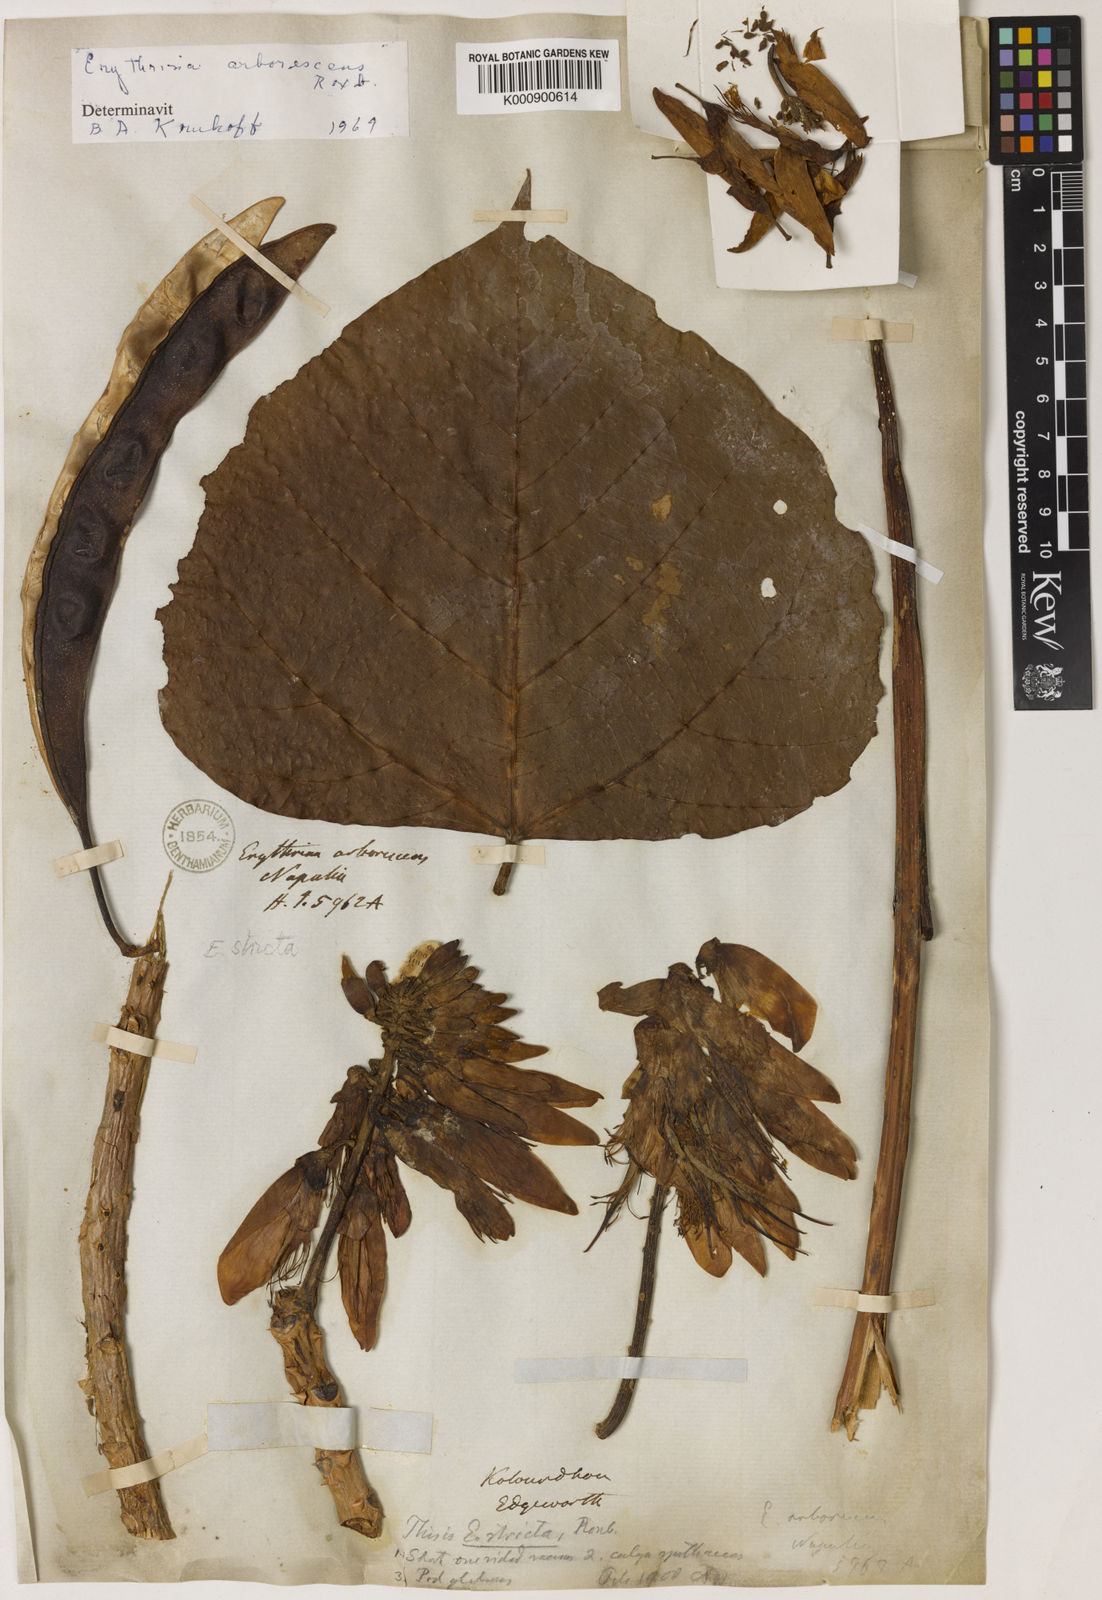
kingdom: Plantae
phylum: Tracheophyta
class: Magnoliopsida
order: Fabales
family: Fabaceae
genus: Erythrina
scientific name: Erythrina arborescens
